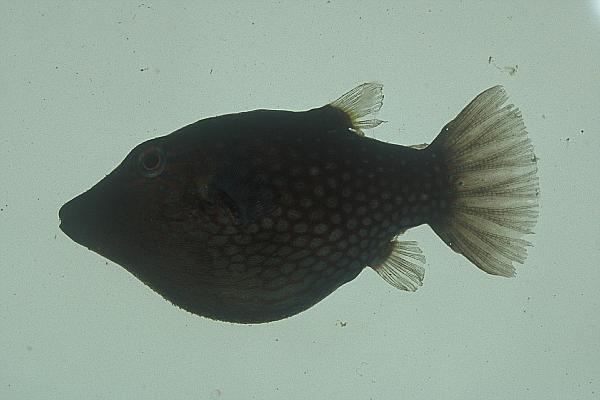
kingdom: Animalia
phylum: Chordata
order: Tetraodontiformes
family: Tetraodontidae
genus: Canthigaster
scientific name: Canthigaster janthinoptera
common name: Honeycomb toby
